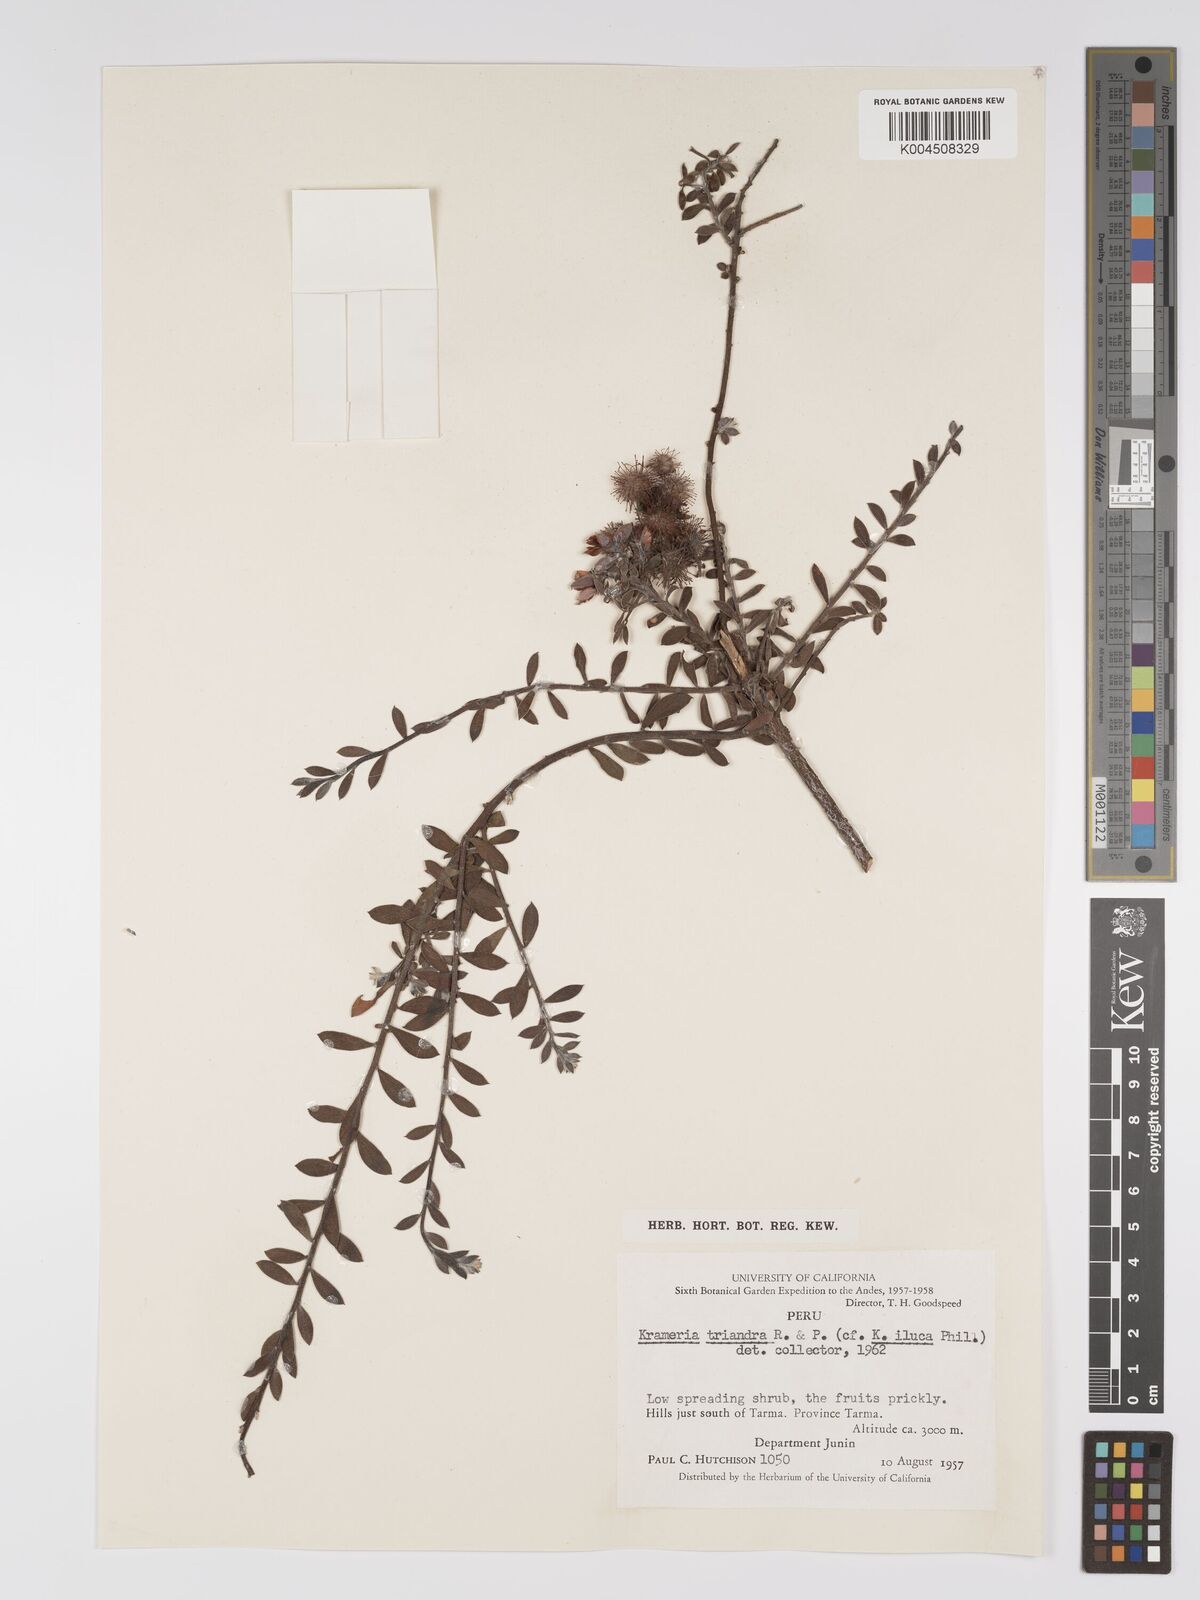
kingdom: Plantae
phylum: Tracheophyta
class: Magnoliopsida
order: Zygophyllales
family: Krameriaceae
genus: Krameria
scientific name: Krameria lappacea
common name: Rhatany
